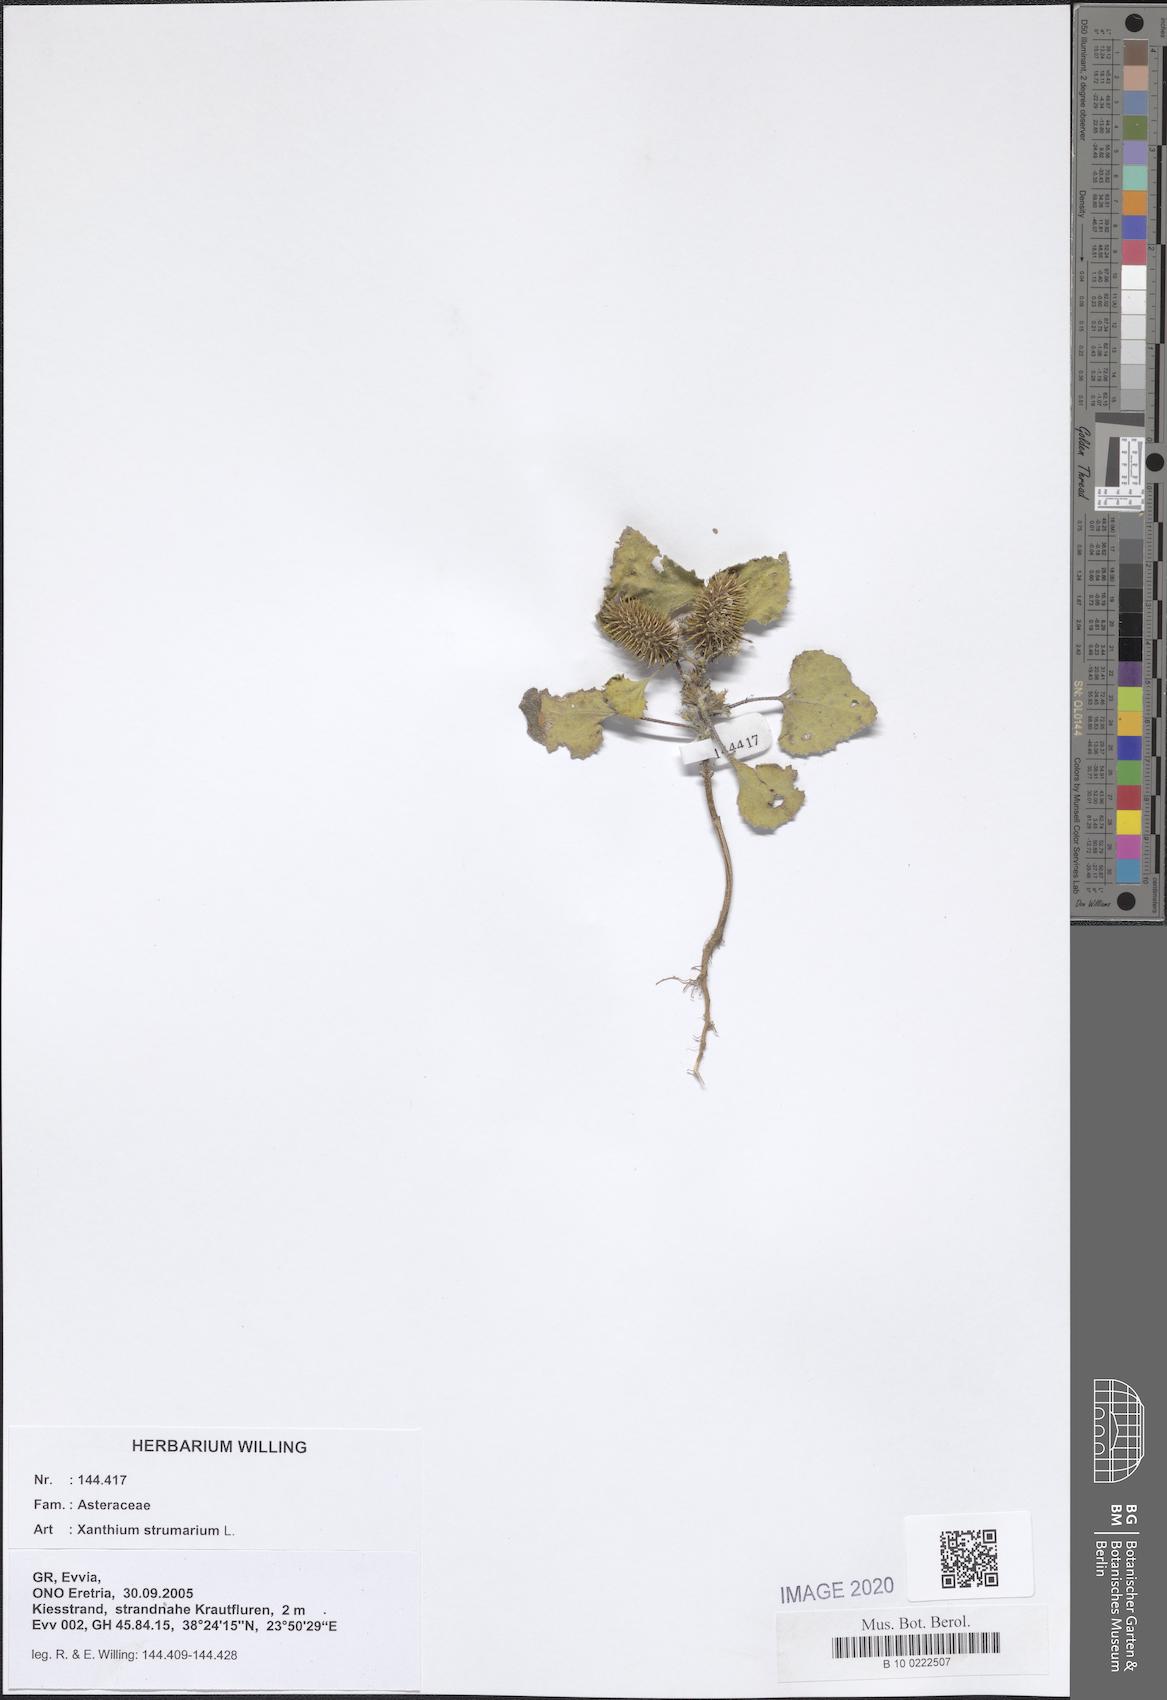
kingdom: Plantae
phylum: Tracheophyta
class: Magnoliopsida
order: Asterales
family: Asteraceae
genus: Xanthium
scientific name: Xanthium strumarium
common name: Rough cocklebur
